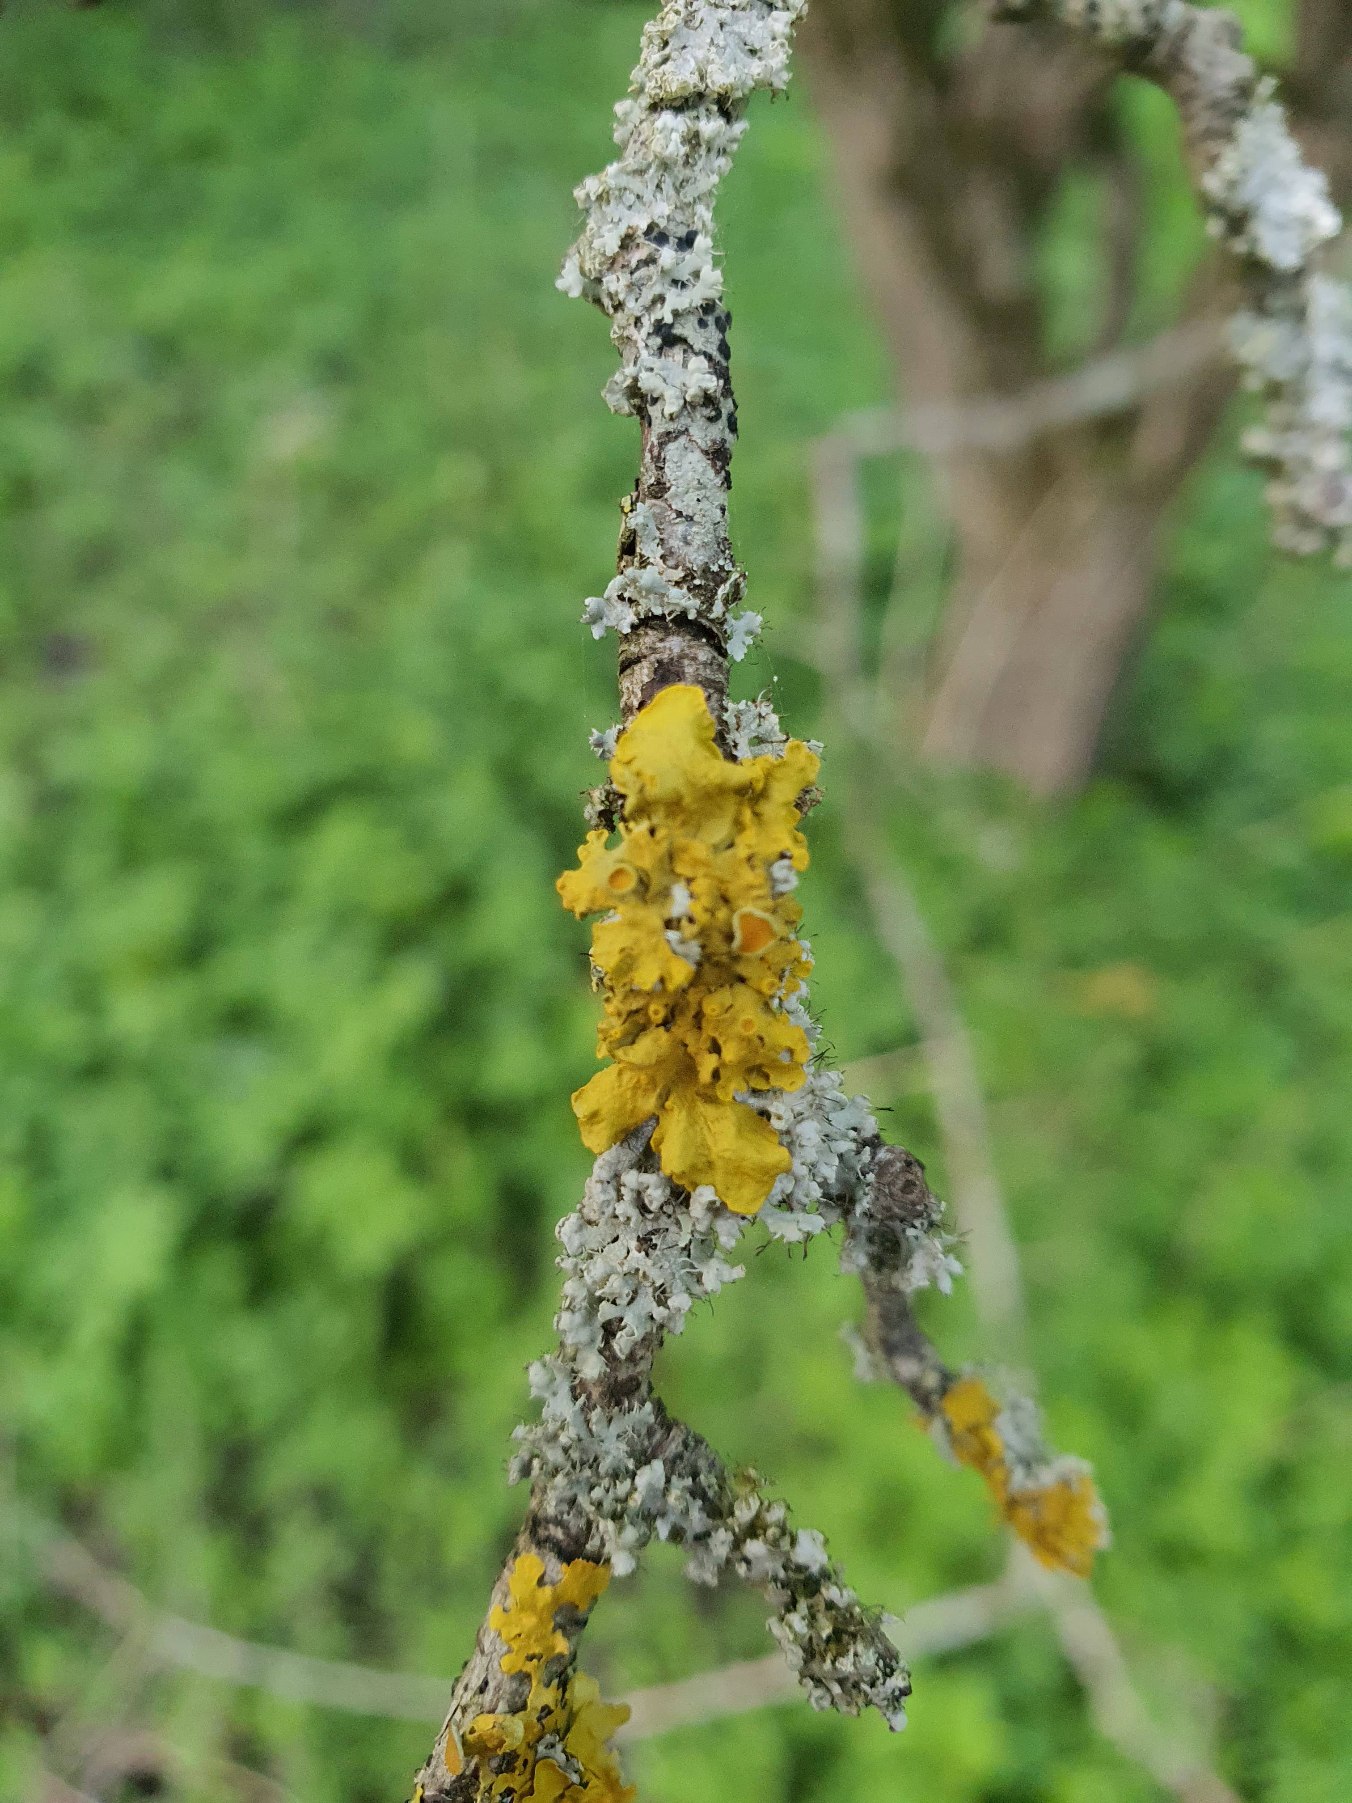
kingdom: Fungi
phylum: Ascomycota
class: Lecanoromycetes
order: Teloschistales
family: Teloschistaceae
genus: Xanthoria
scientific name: Xanthoria parietina
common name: Almindelig væggelav
